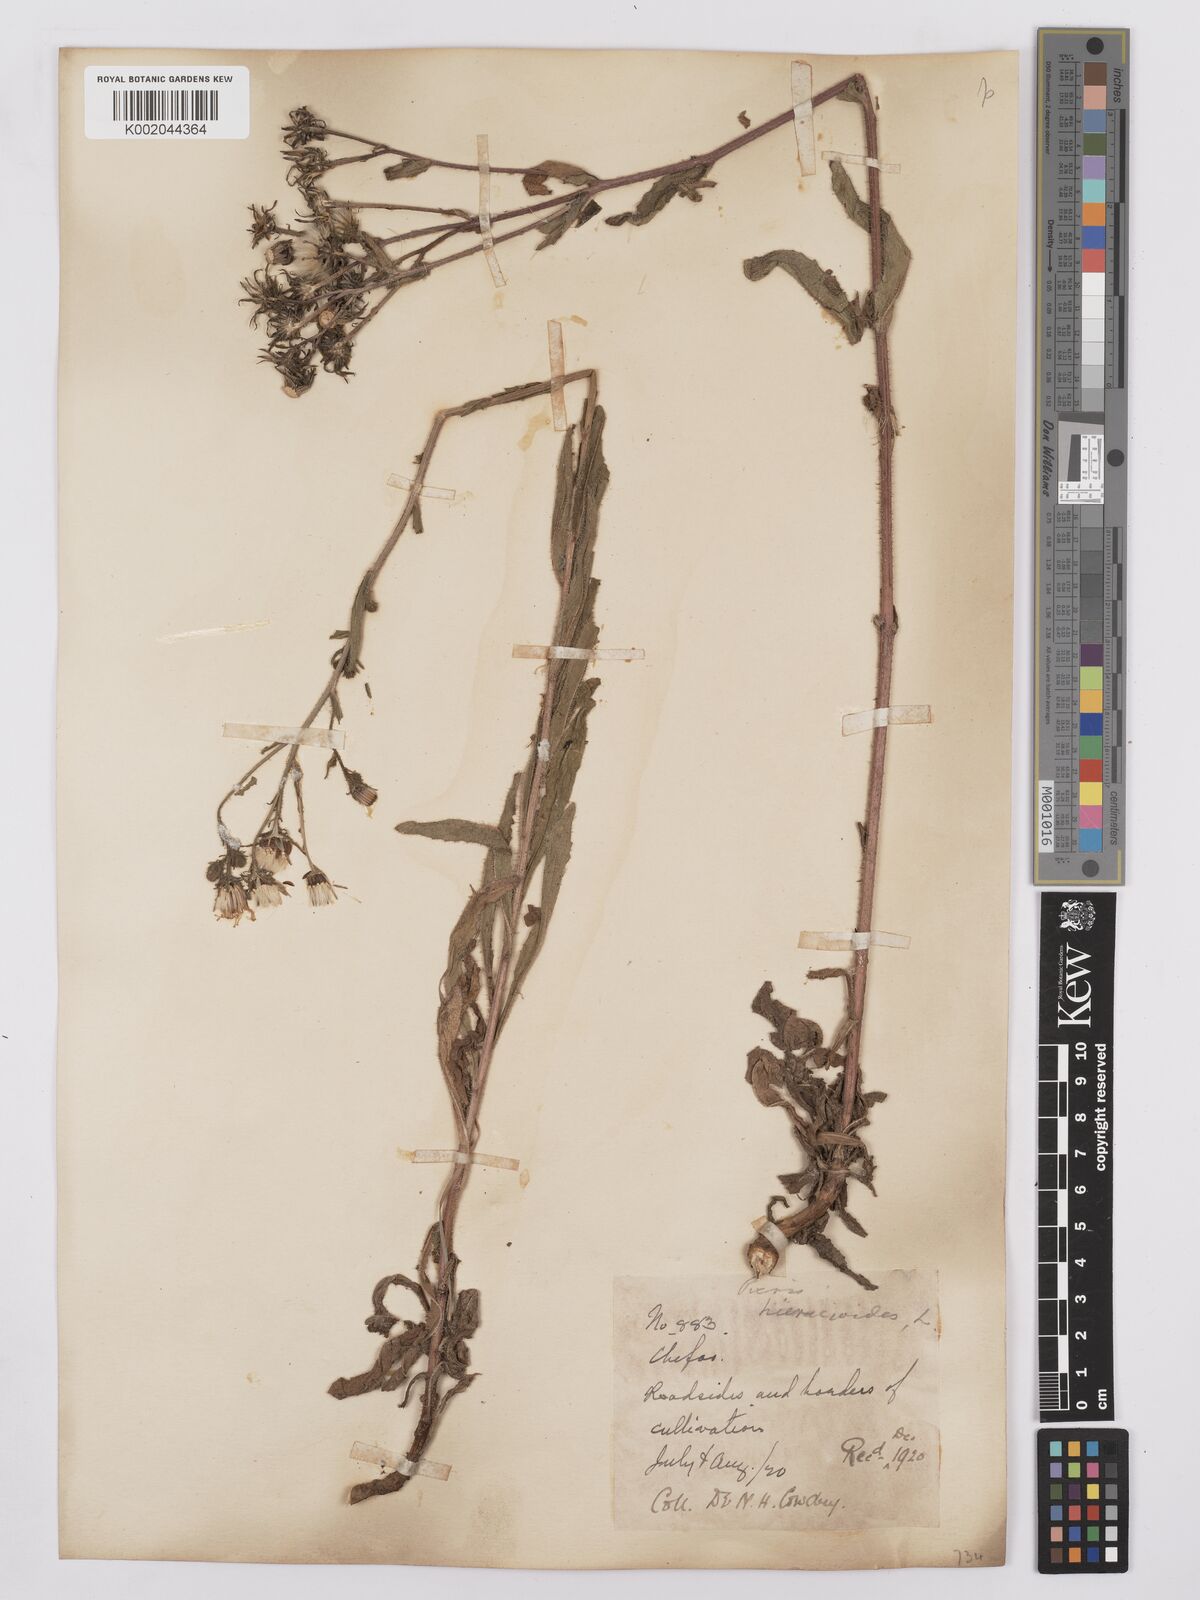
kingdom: Plantae
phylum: Tracheophyta
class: Magnoliopsida
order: Asterales
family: Asteraceae
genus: Picris
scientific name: Picris hieracioides
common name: Hawkweed oxtongue
